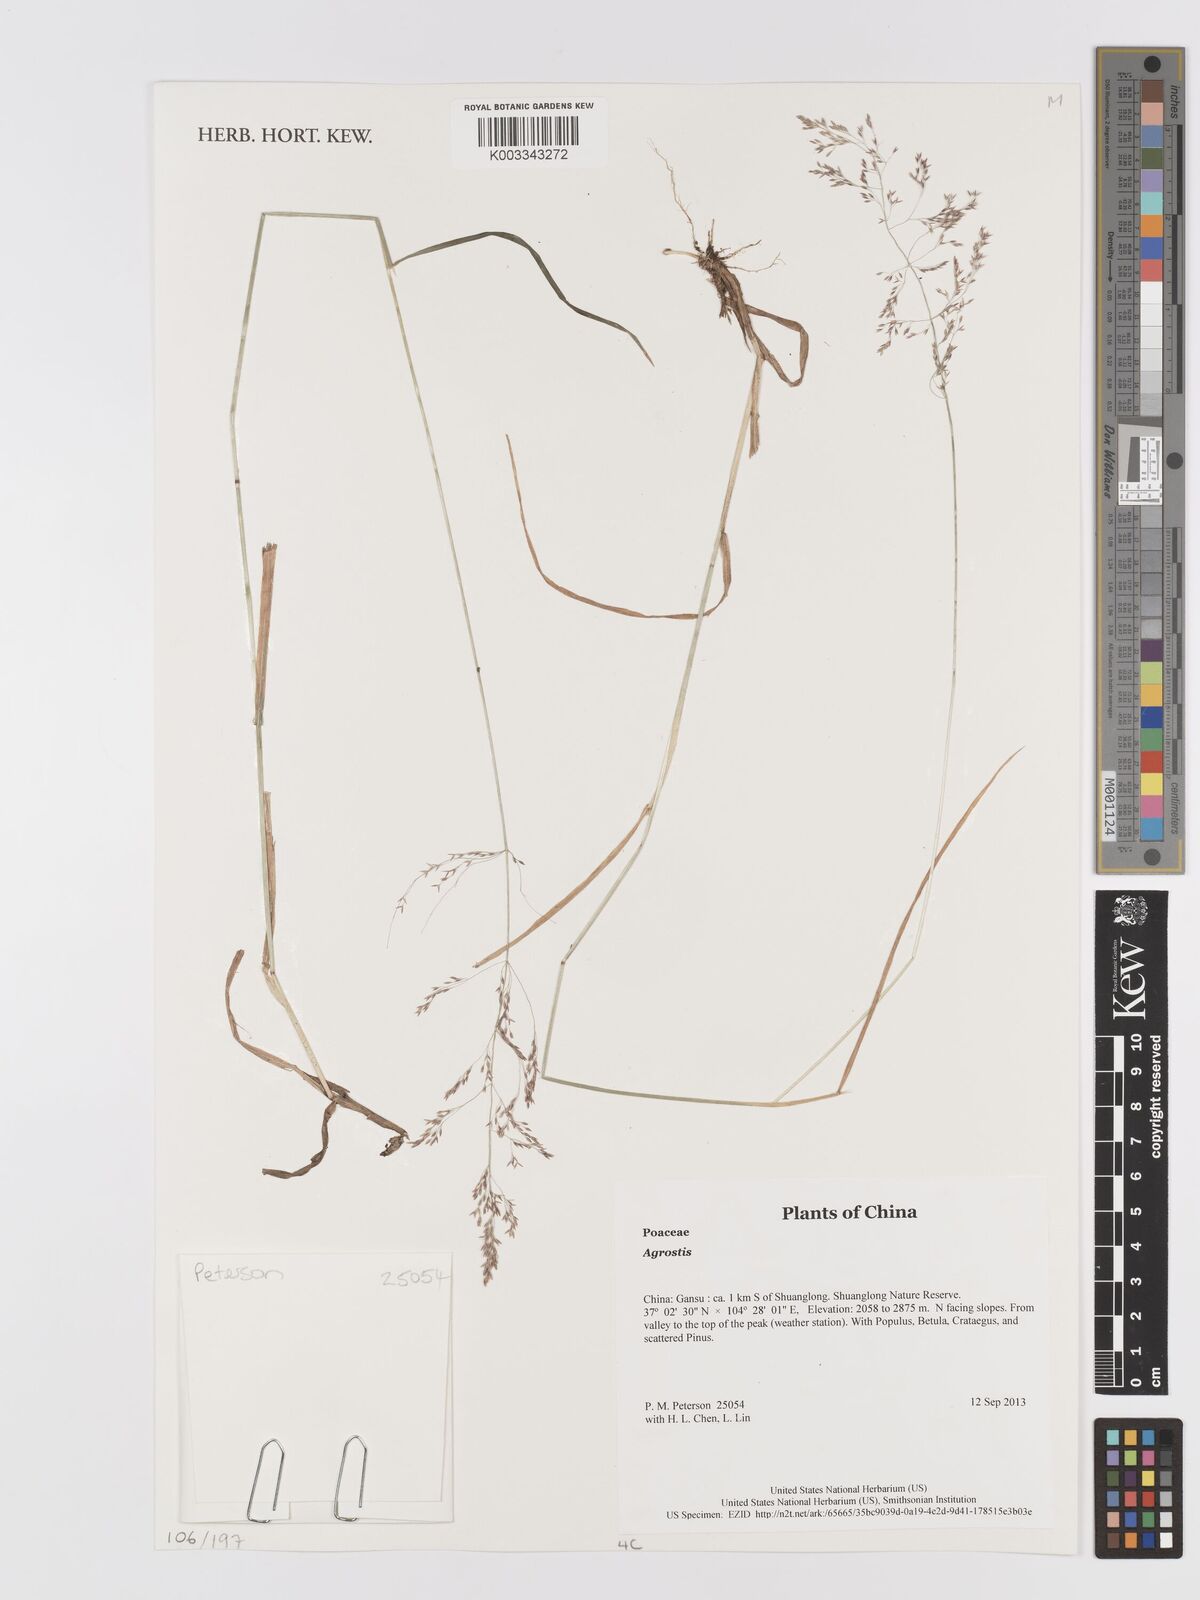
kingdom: Plantae
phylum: Tracheophyta
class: Liliopsida
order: Poales
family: Poaceae
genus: Agrostis
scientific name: Agrostis
